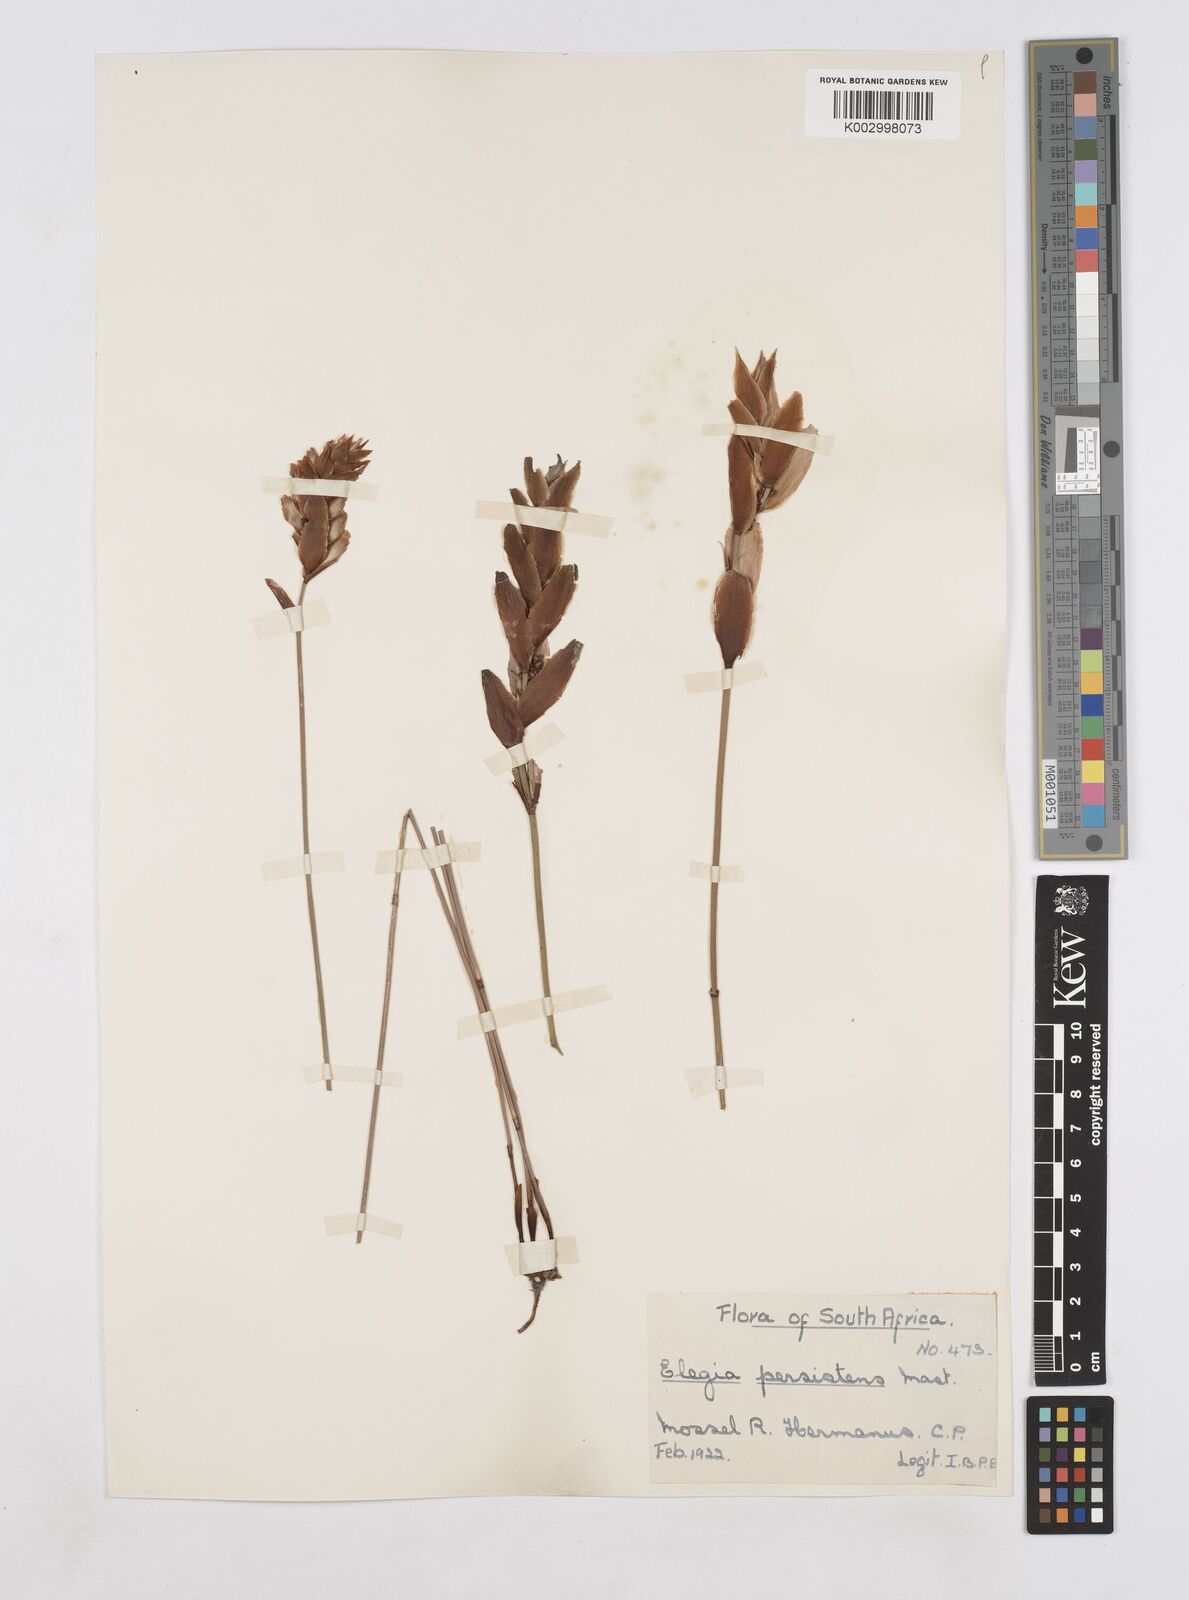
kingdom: Plantae
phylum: Tracheophyta
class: Liliopsida
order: Poales
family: Restionaceae
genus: Elegia
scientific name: Elegia
